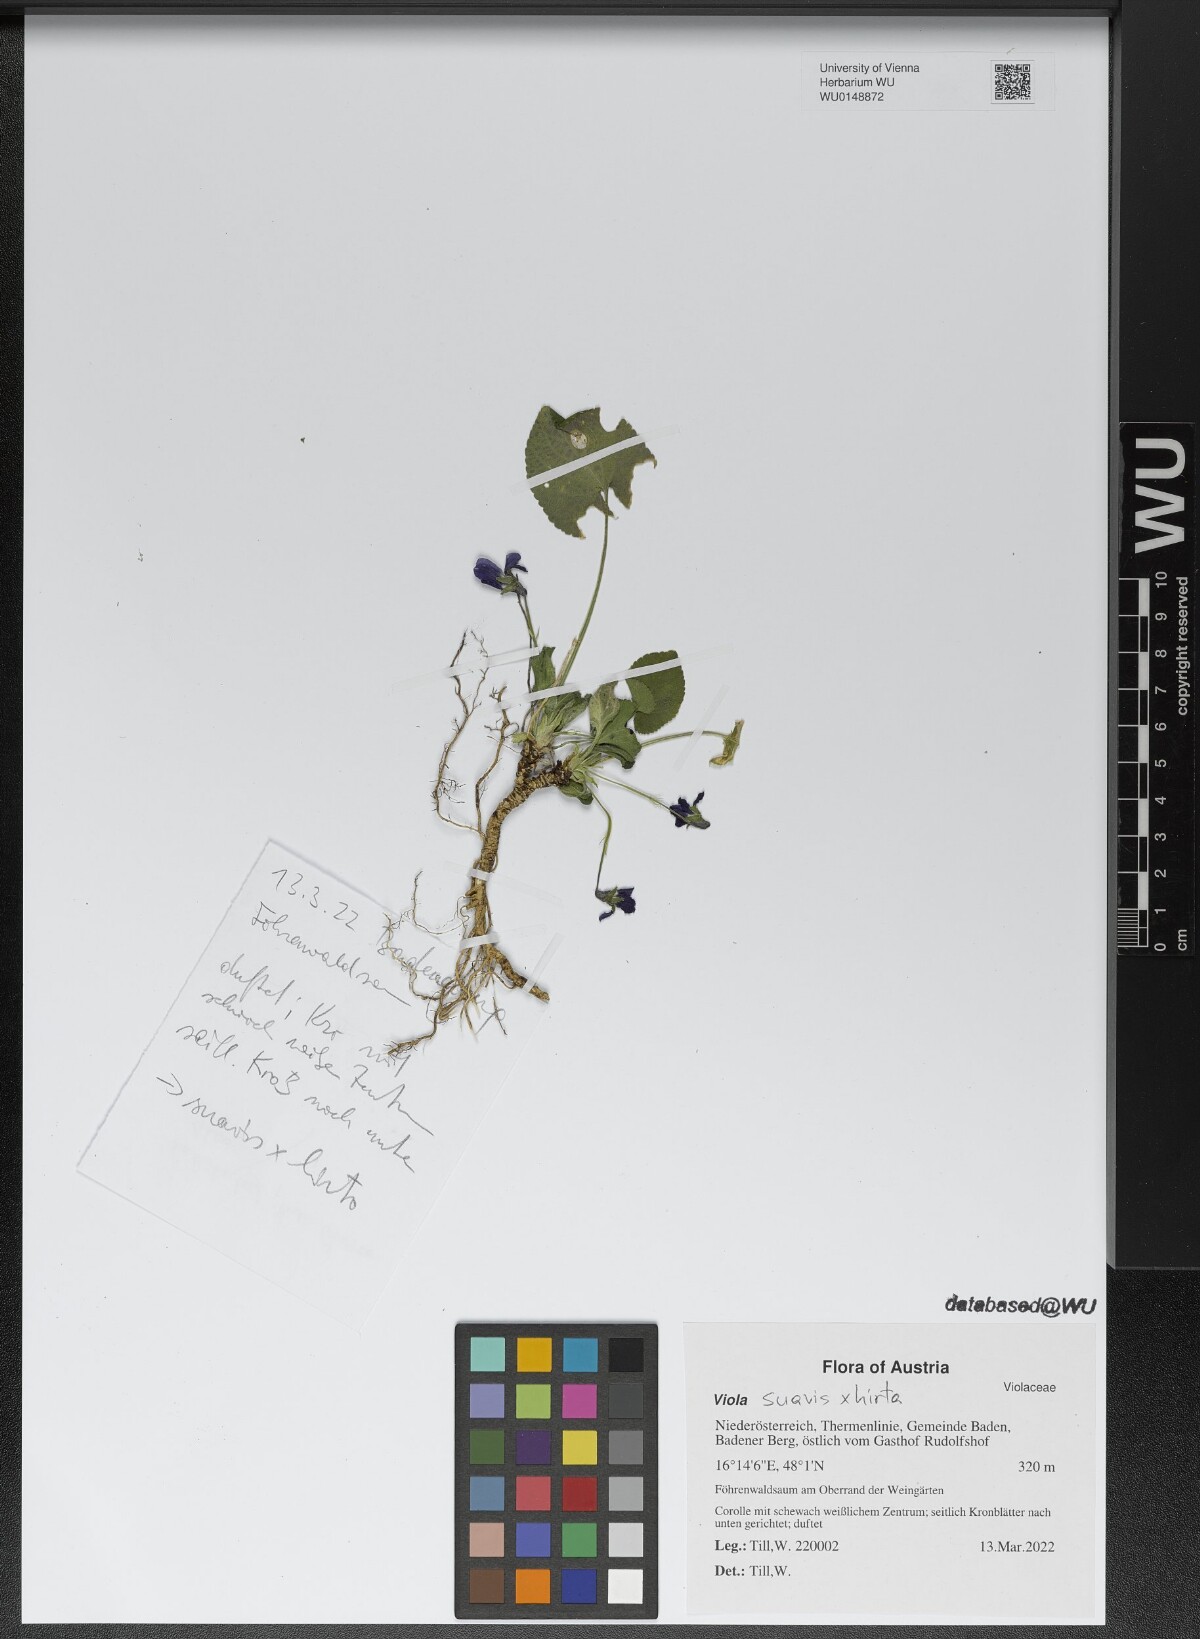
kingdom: Plantae
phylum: Tracheophyta
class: Magnoliopsida
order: Malpighiales
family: Violaceae
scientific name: Violaceae
